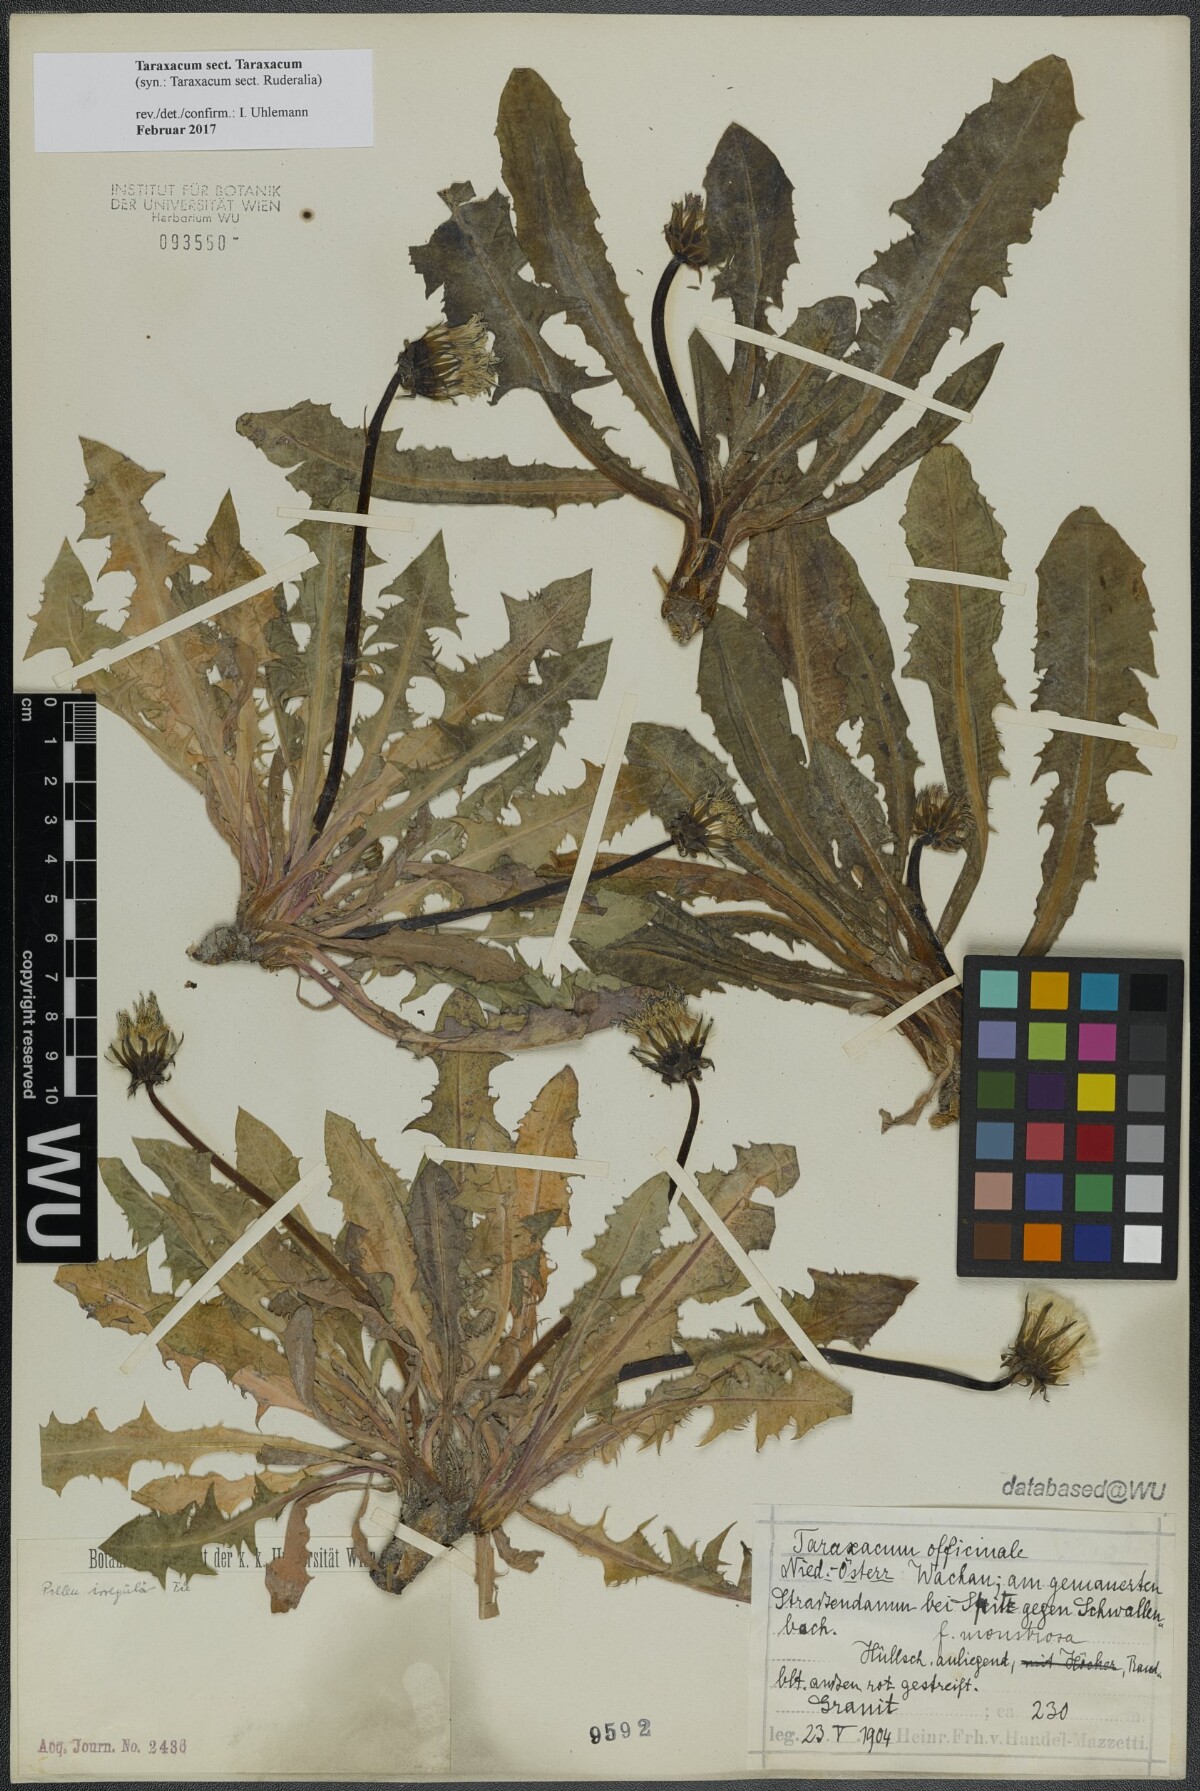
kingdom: Plantae
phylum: Tracheophyta
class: Magnoliopsida
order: Asterales
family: Asteraceae
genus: Taraxacum
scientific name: Taraxacum
